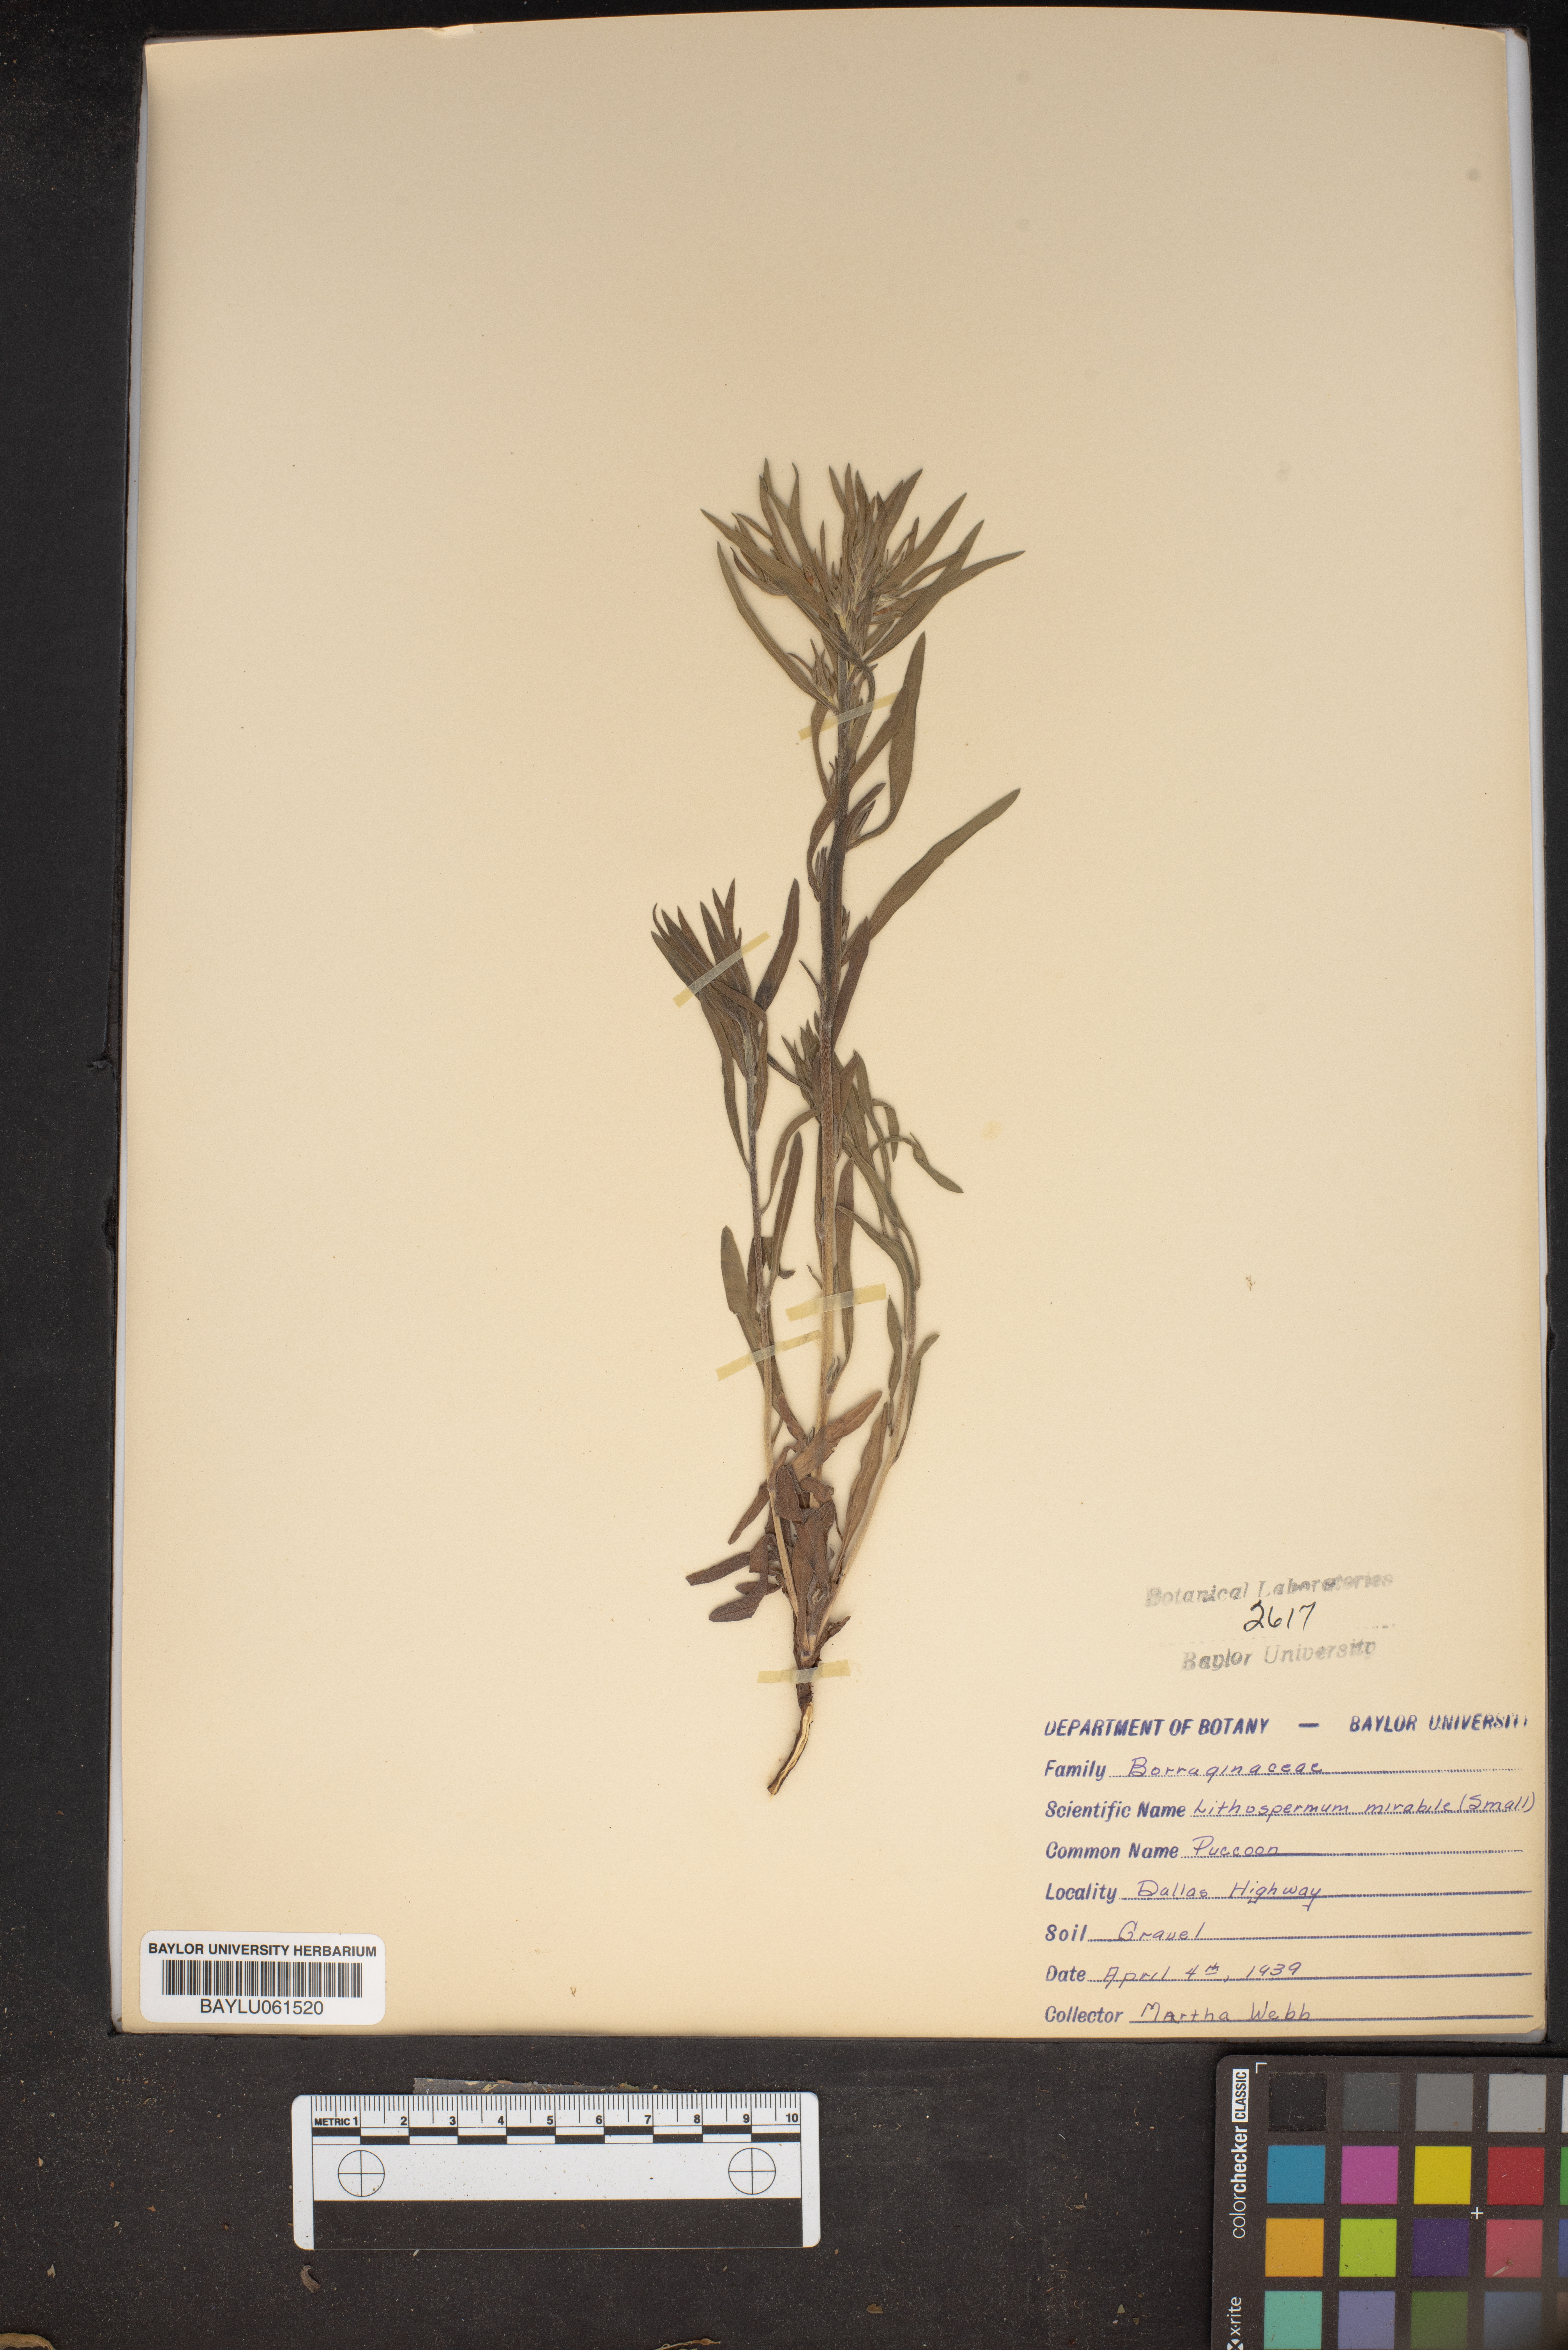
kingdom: Plantae
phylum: Tracheophyta
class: Magnoliopsida
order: Boraginales
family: Boraginaceae
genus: Lithospermum
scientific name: Lithospermum mirabile
